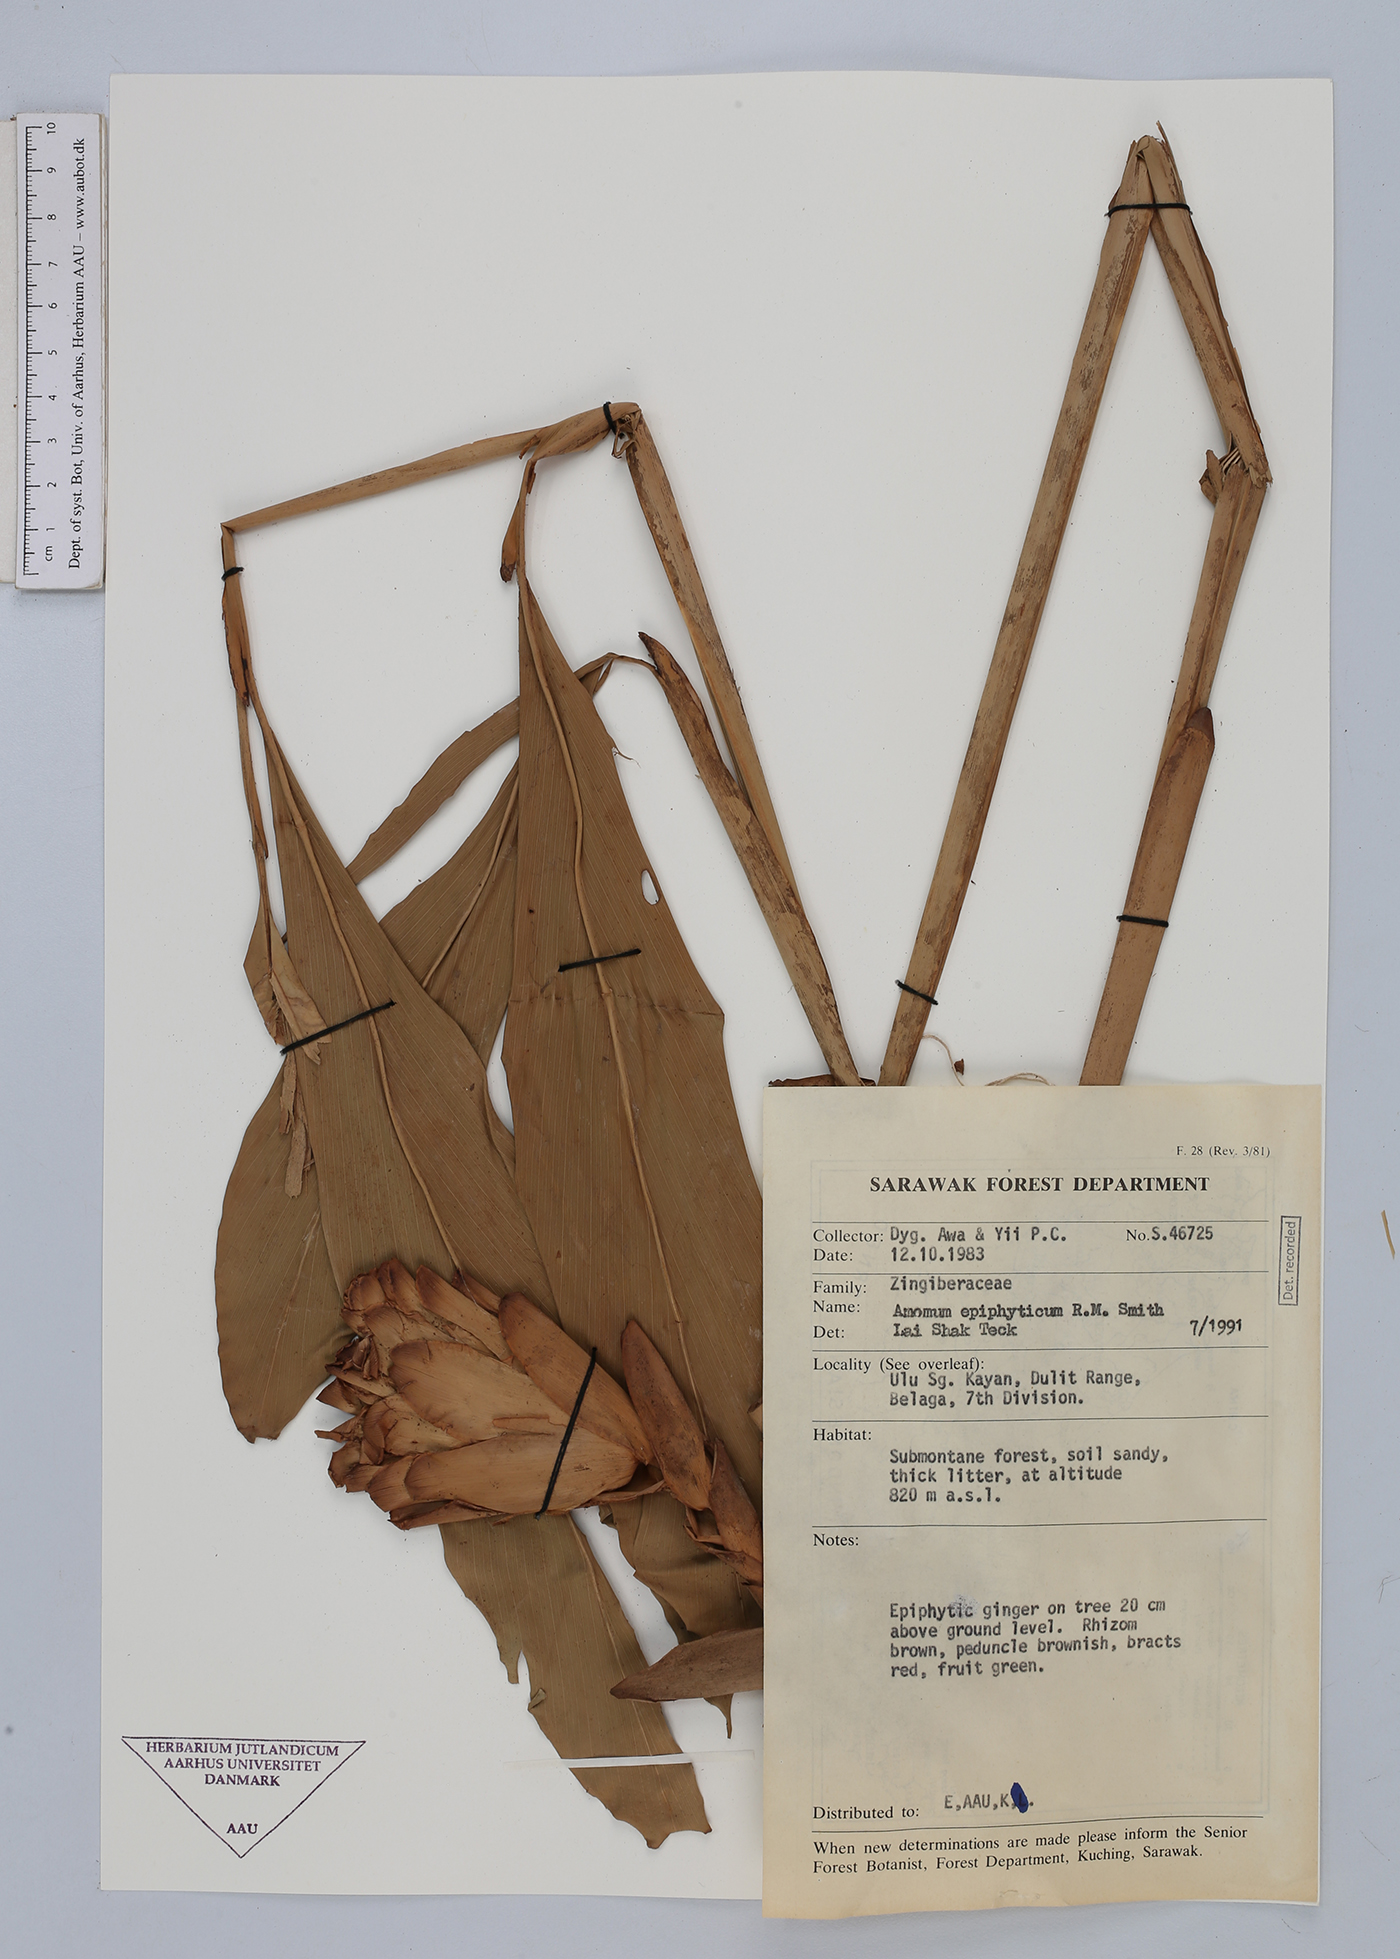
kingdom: Plantae
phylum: Tracheophyta
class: Liliopsida
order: Zingiberales
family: Zingiberaceae
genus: Epiamomum
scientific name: Epiamomum epiphyticum
